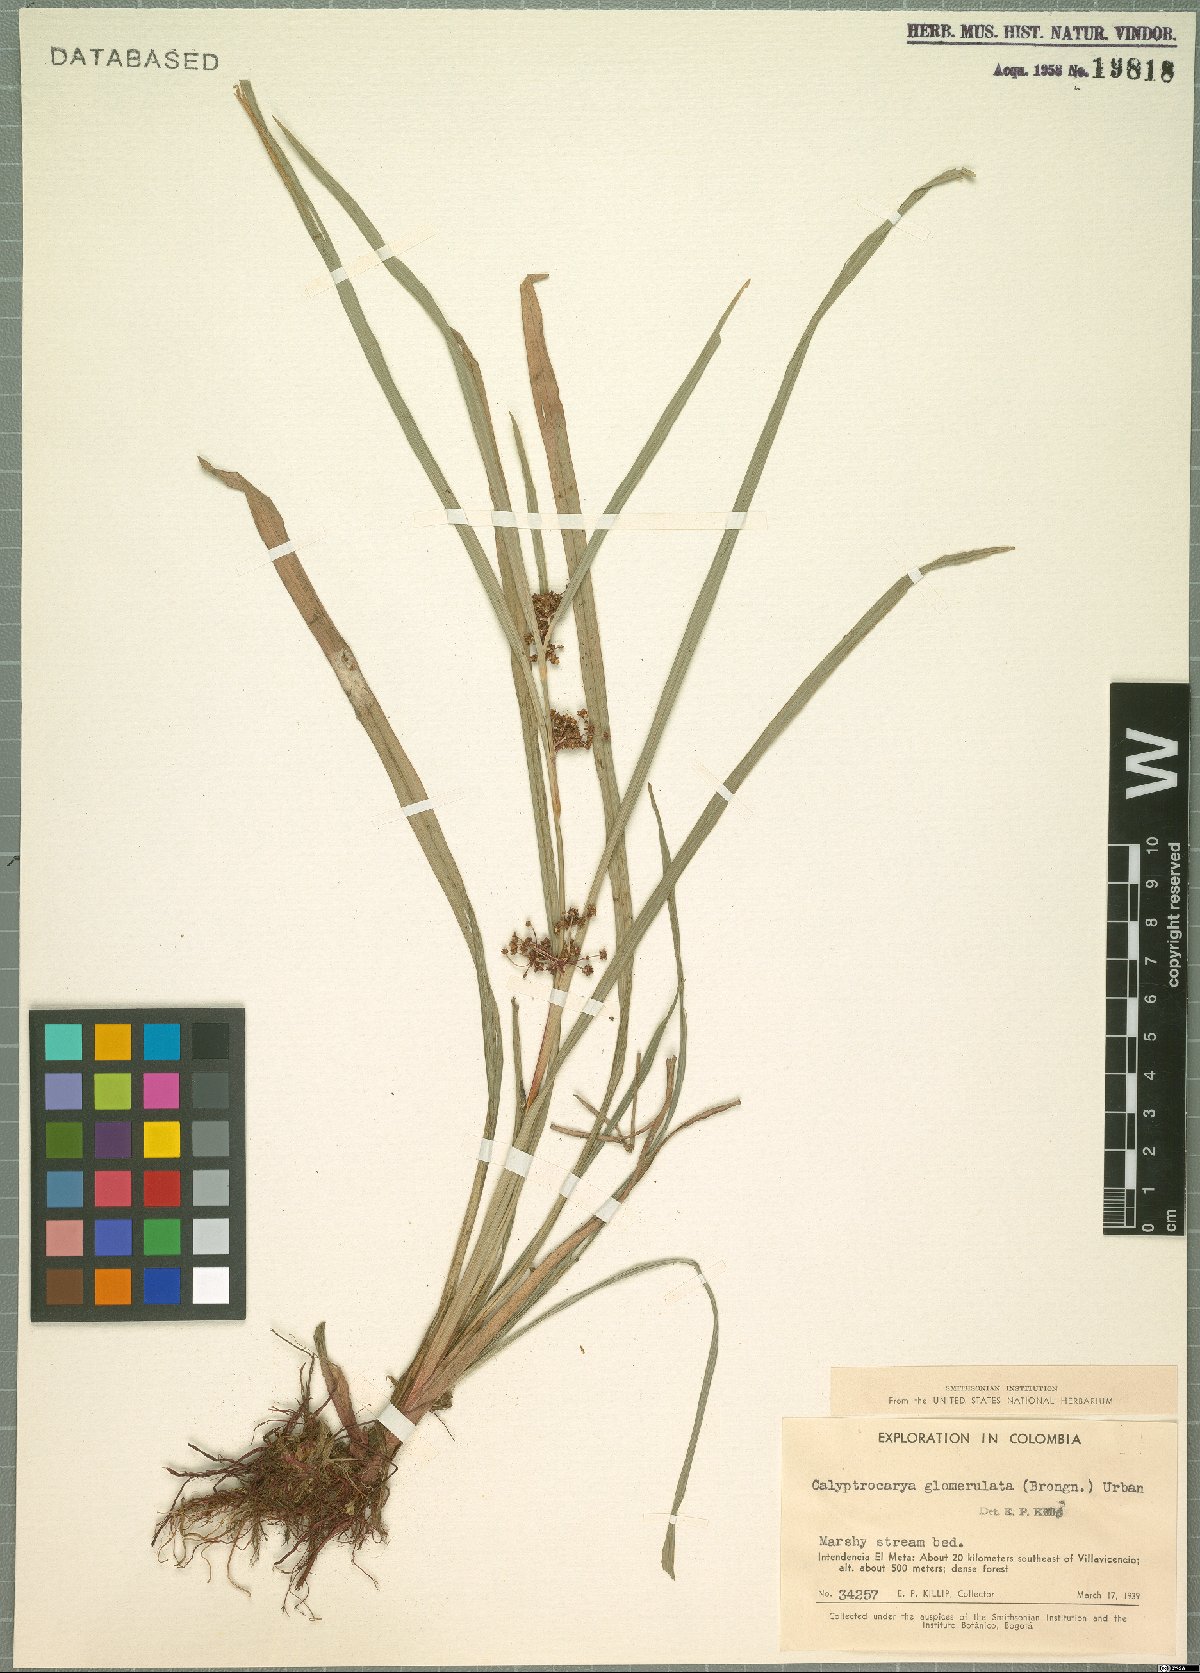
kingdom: Plantae
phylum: Tracheophyta
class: Liliopsida
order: Poales
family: Cyperaceae
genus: Calyptrocarya
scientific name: Calyptrocarya glomerulata
